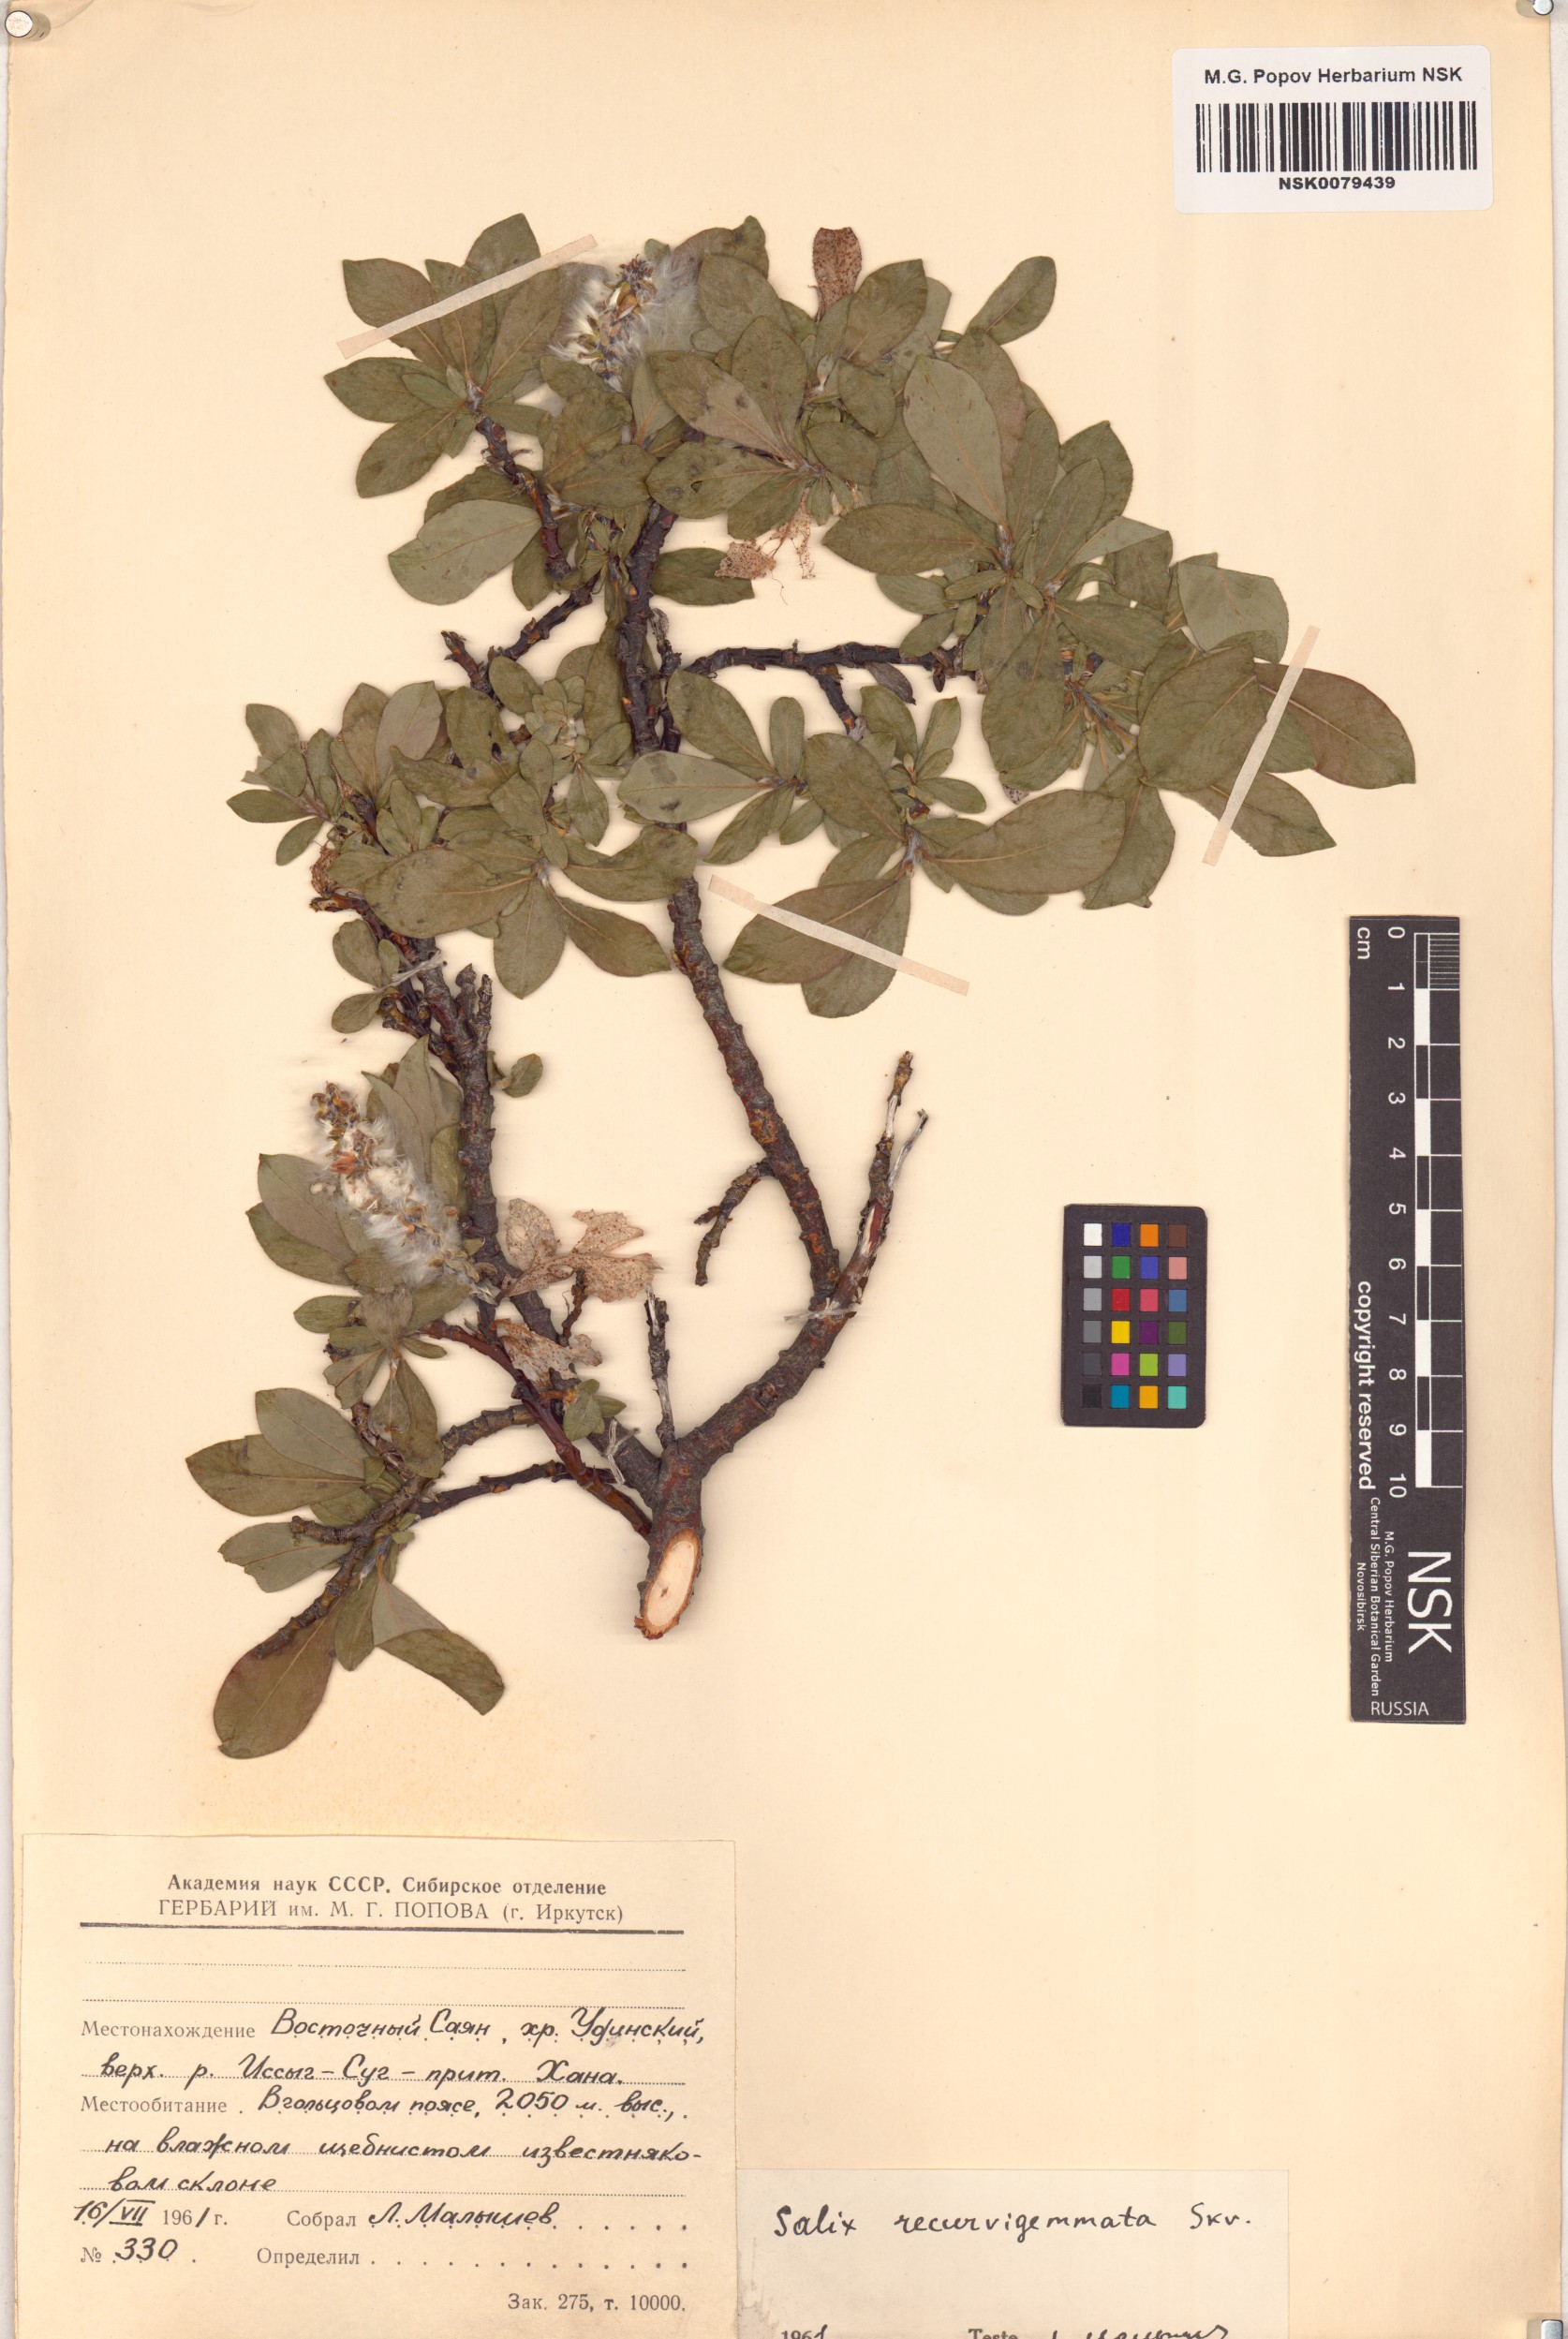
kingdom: Plantae
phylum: Tracheophyta
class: Magnoliopsida
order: Malpighiales
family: Salicaceae
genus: Salix
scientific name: Salix recurvigemmata
